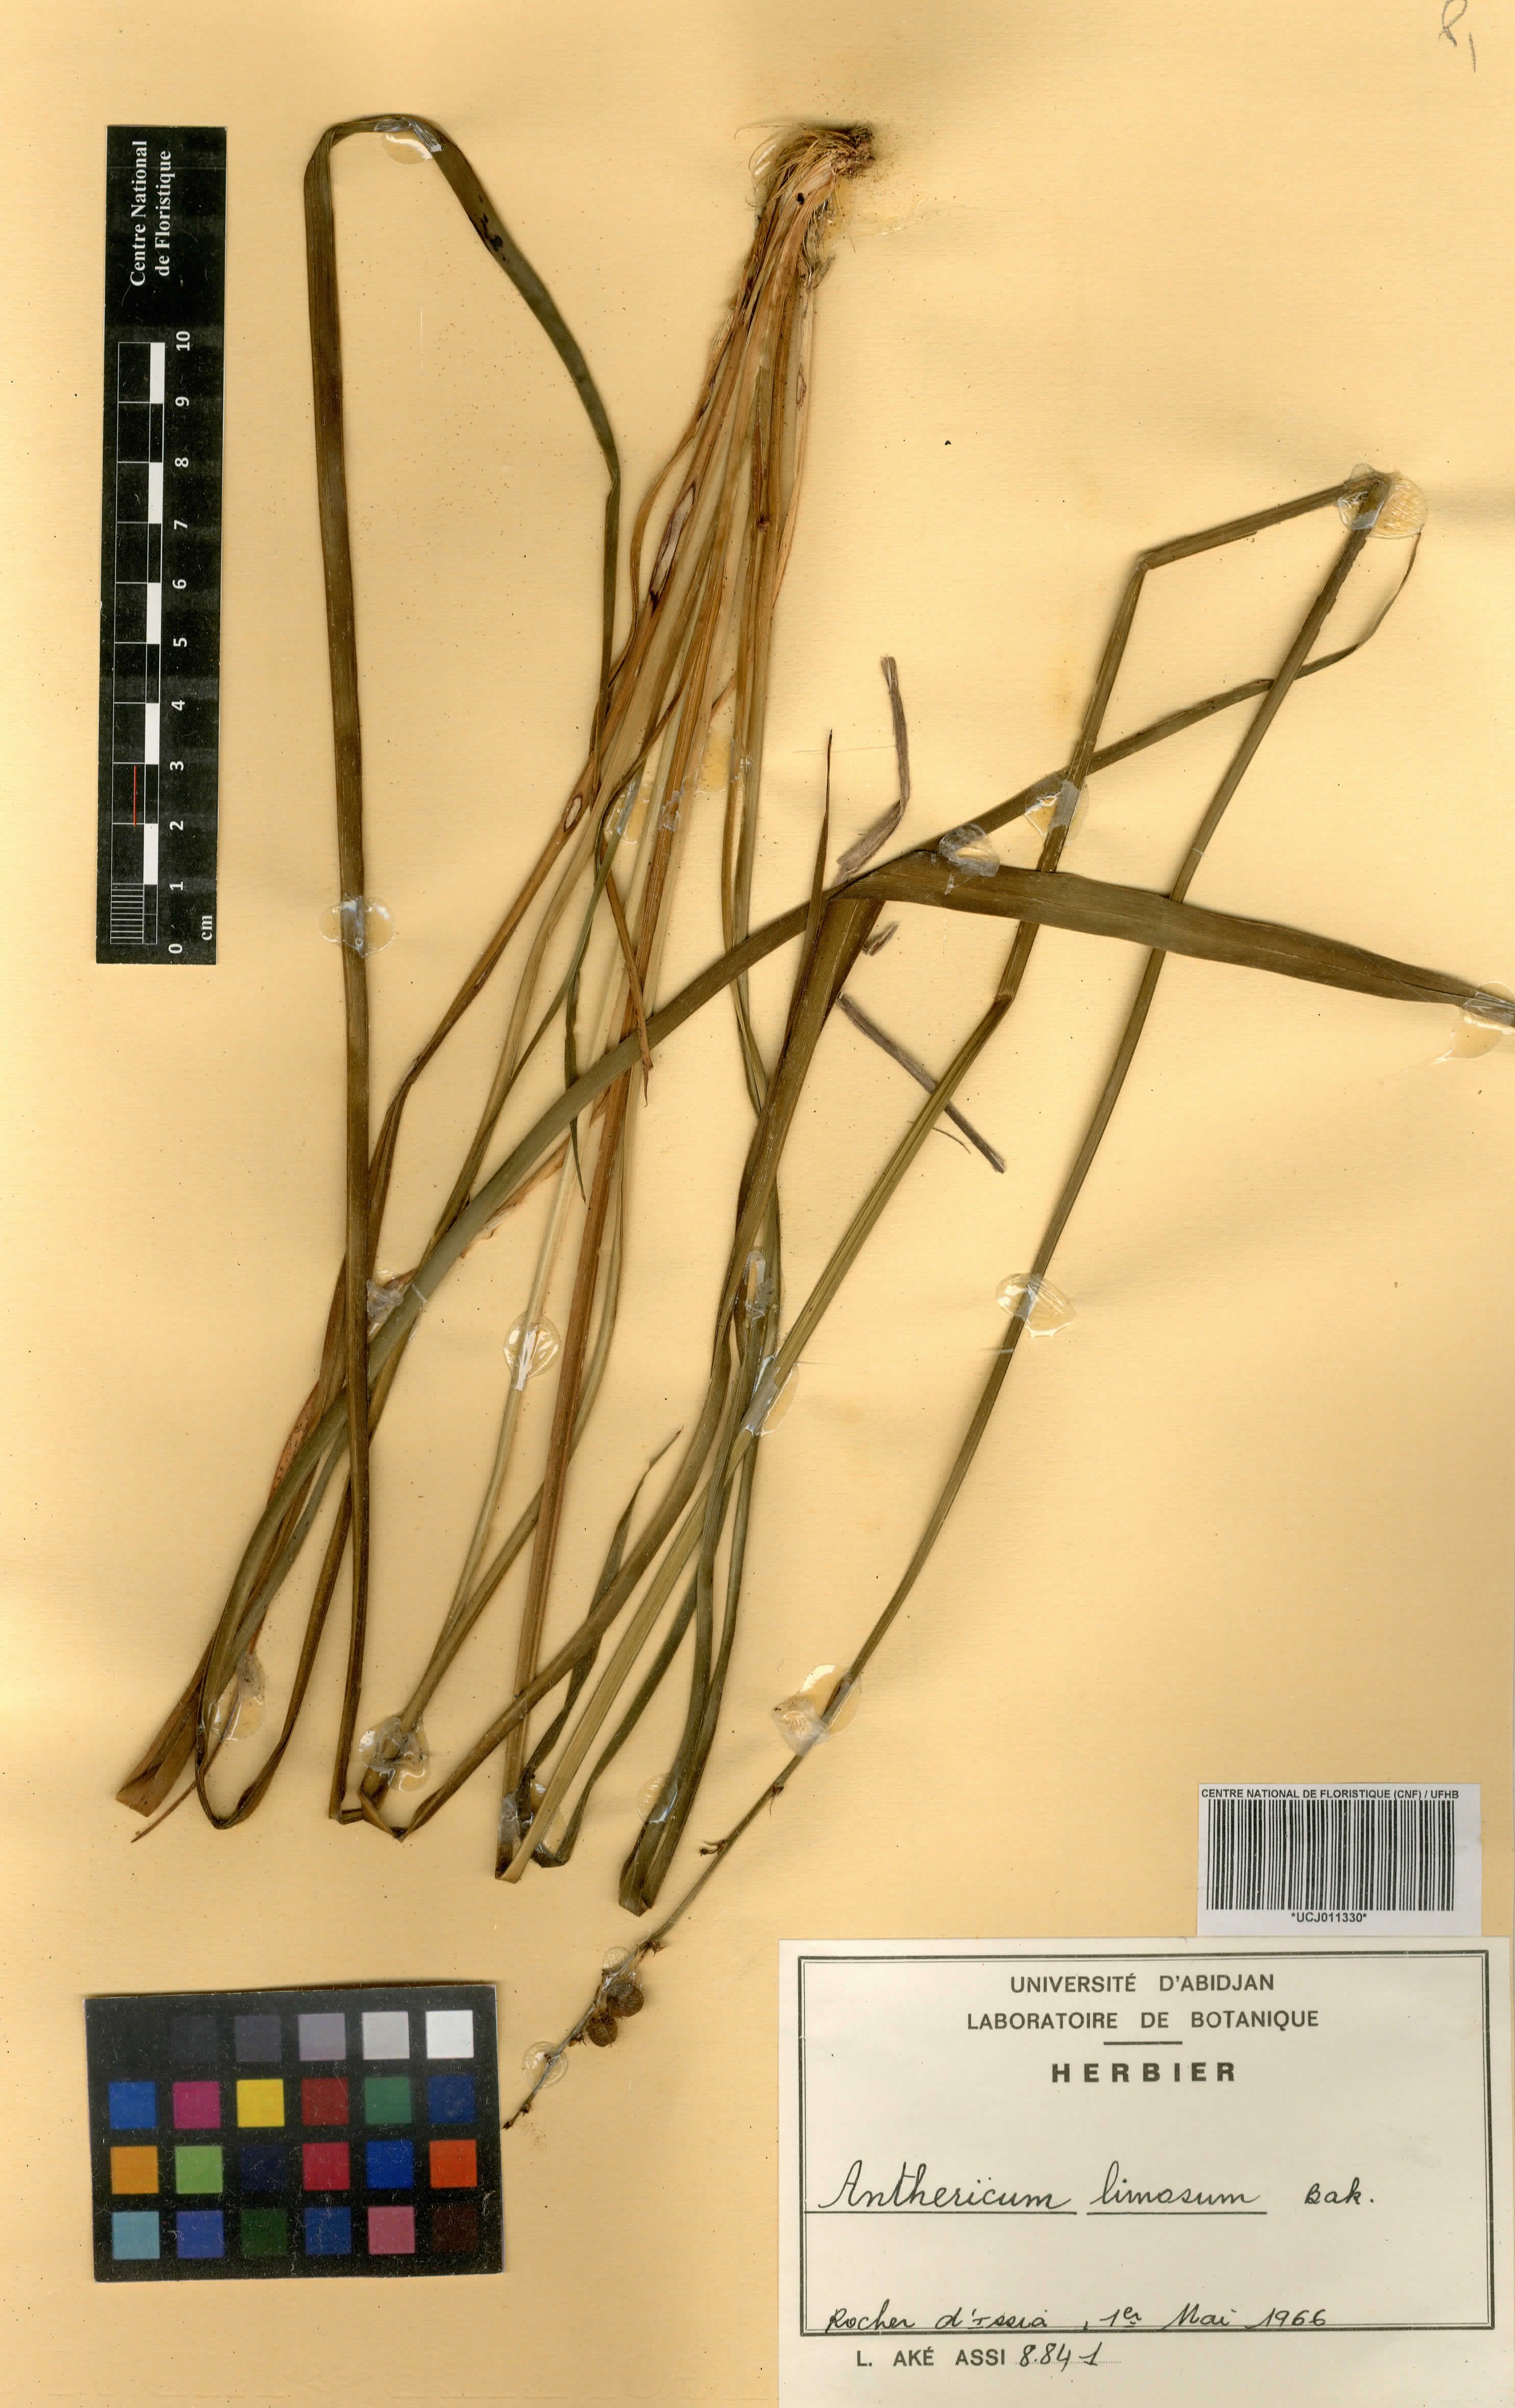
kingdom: Plantae
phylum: Tracheophyta
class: Liliopsida
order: Asparagales
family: Asparagaceae
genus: Chlorophytum
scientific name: Chlorophytum limosum
